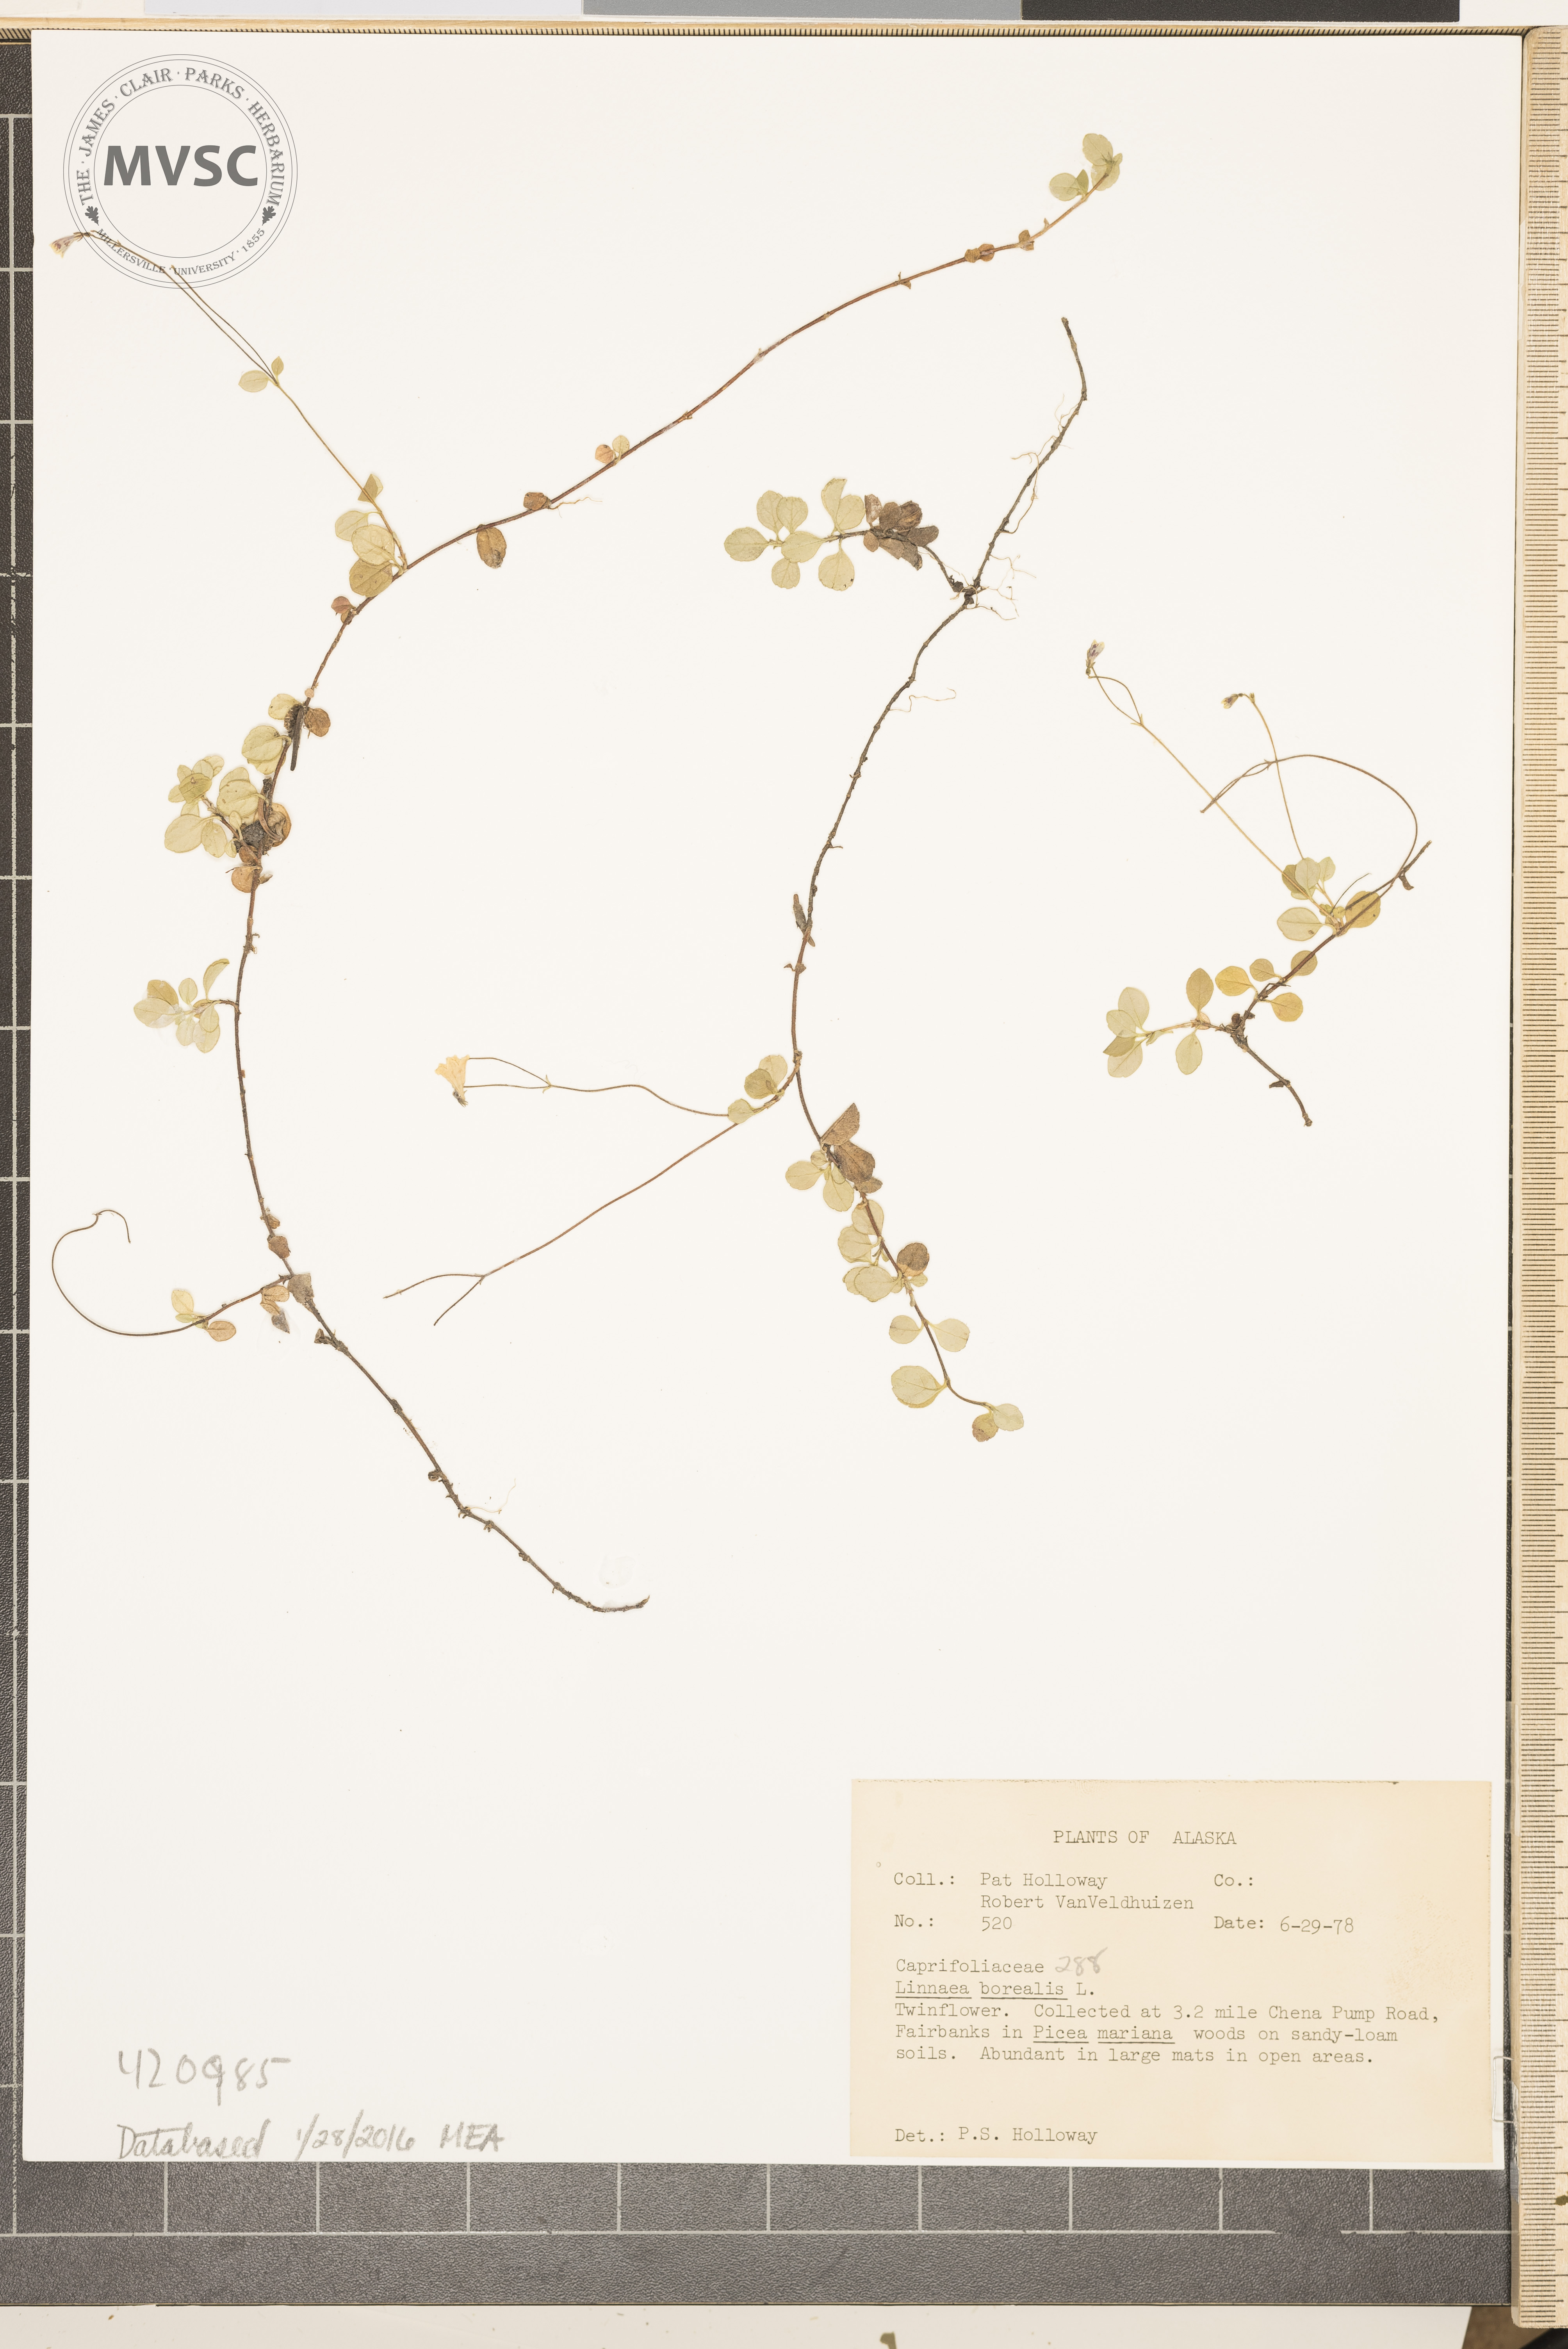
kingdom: Plantae
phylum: Tracheophyta
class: Magnoliopsida
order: Dipsacales
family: Caprifoliaceae
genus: Linnaea
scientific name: Linnaea borealis
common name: Twinflower
